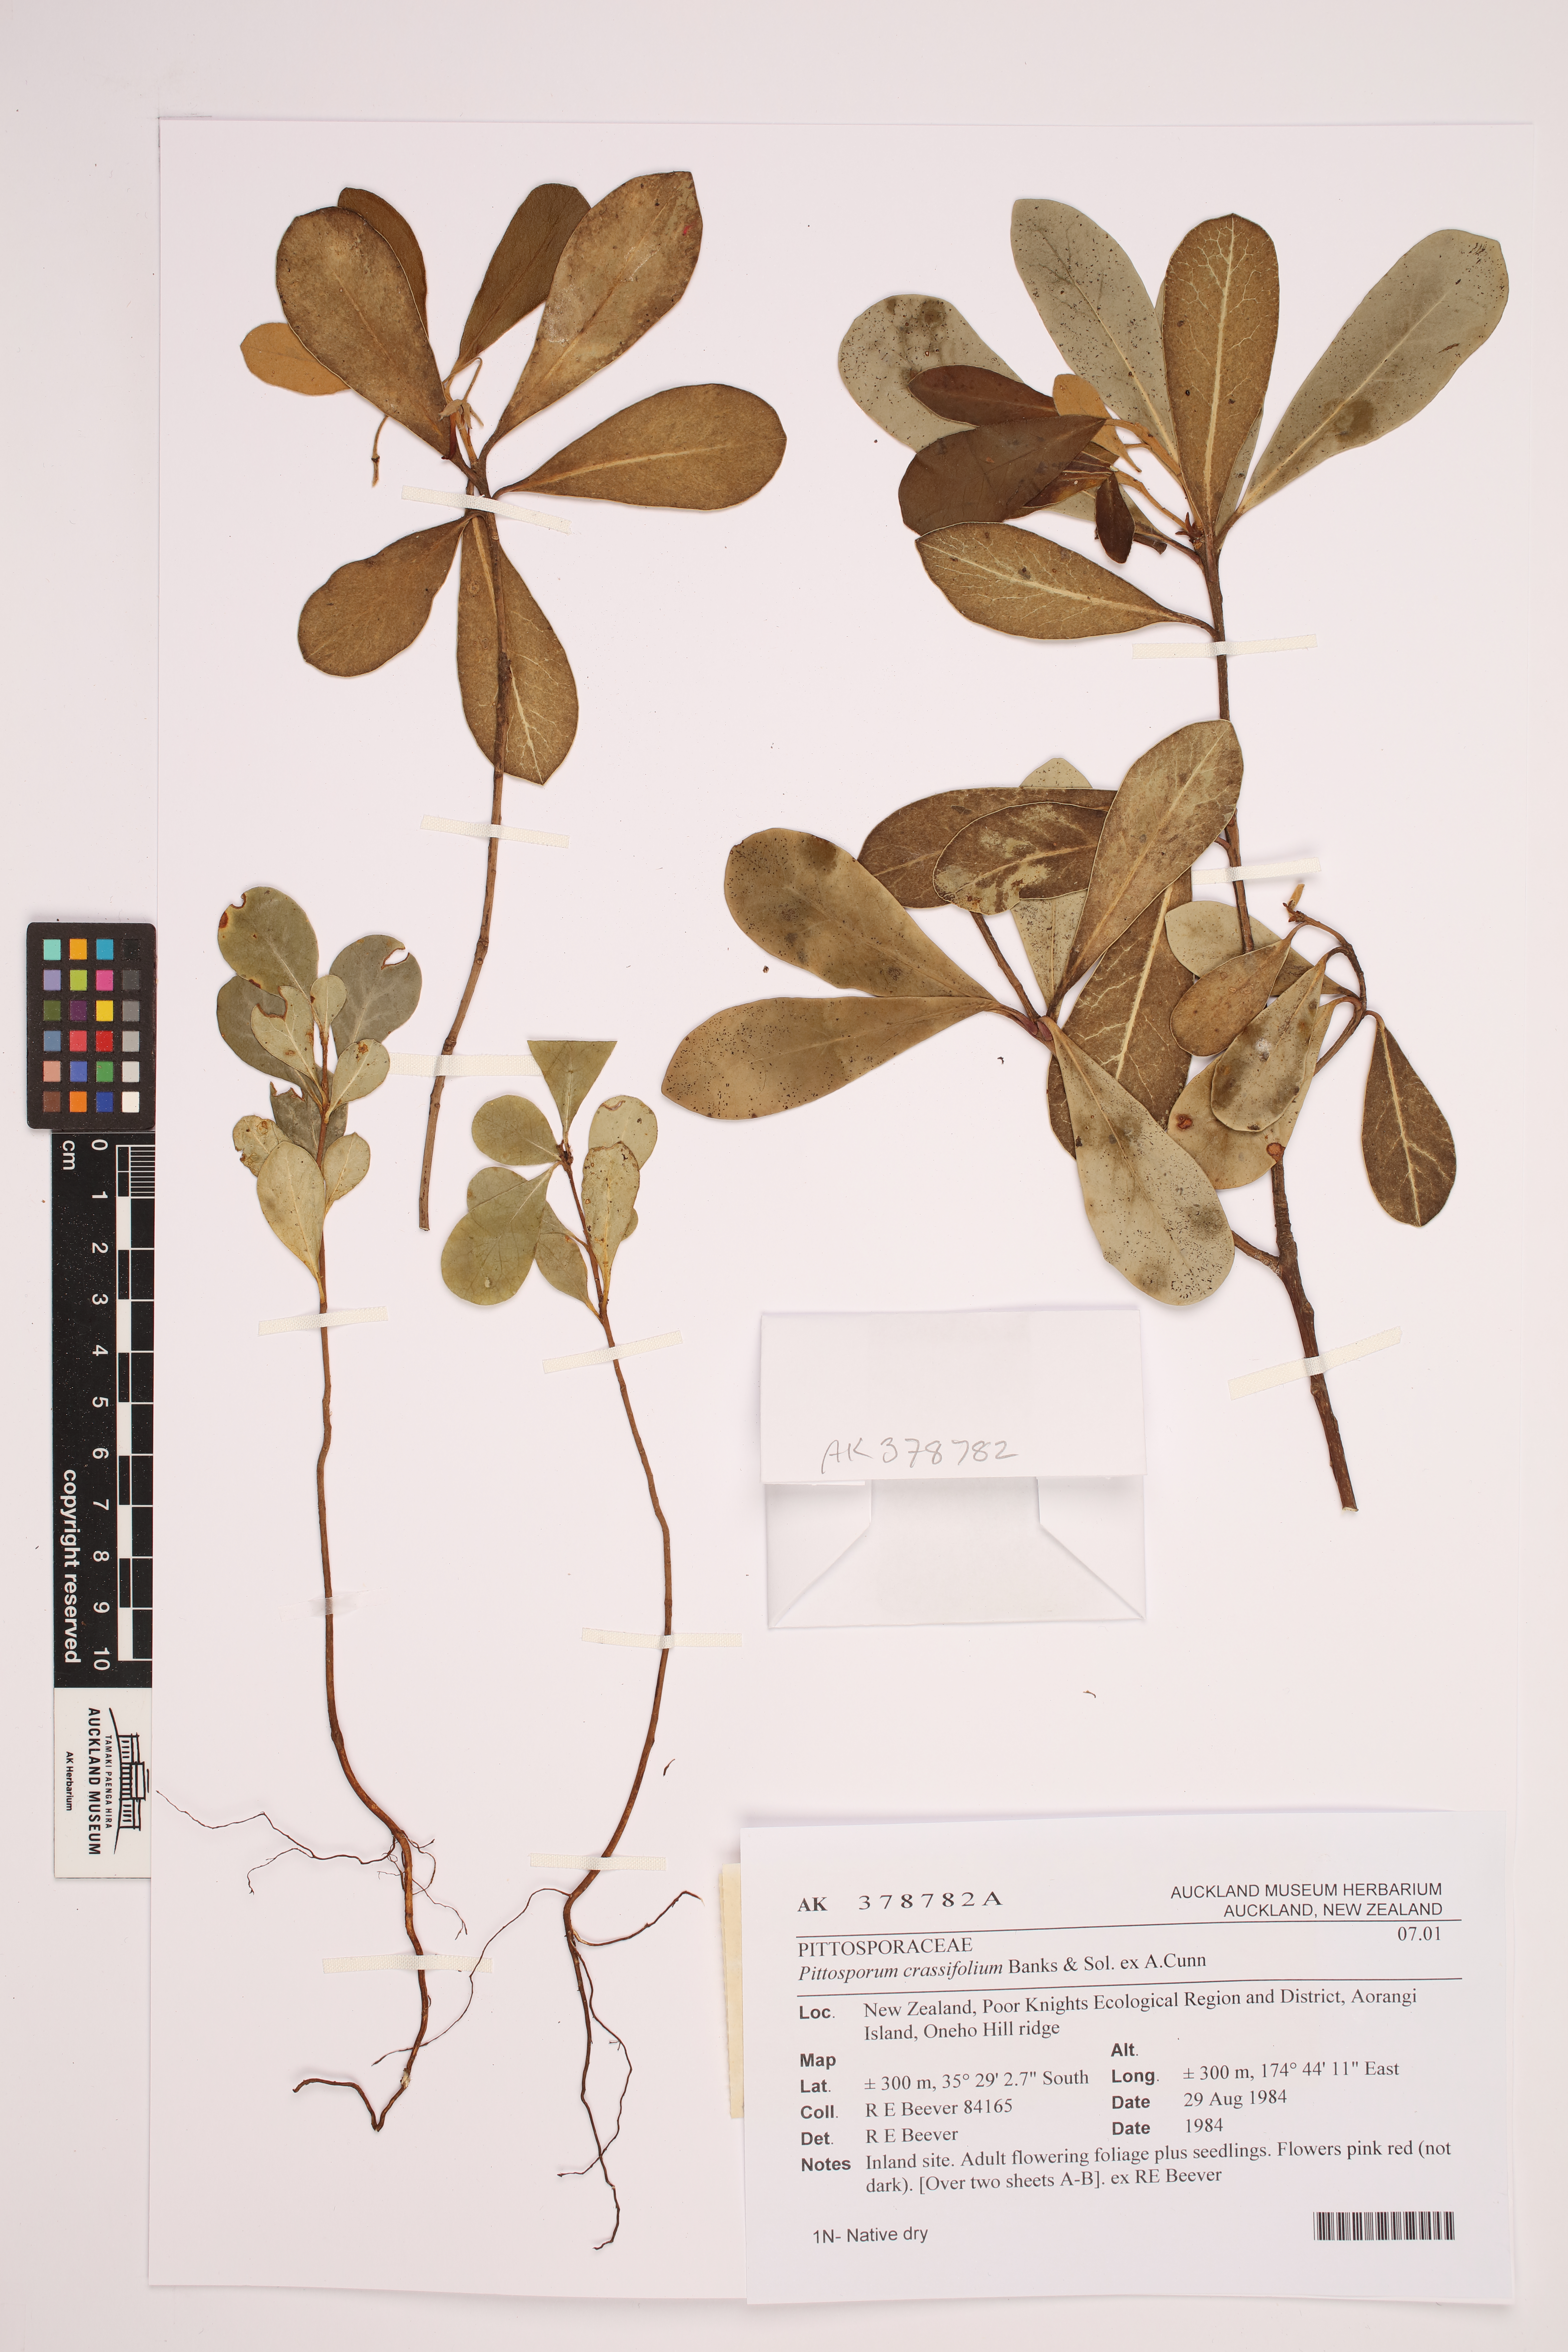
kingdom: Plantae
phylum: Tracheophyta
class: Magnoliopsida
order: Apiales
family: Pittosporaceae
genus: Pittosporum
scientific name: Pittosporum crassifolium
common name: Karo
